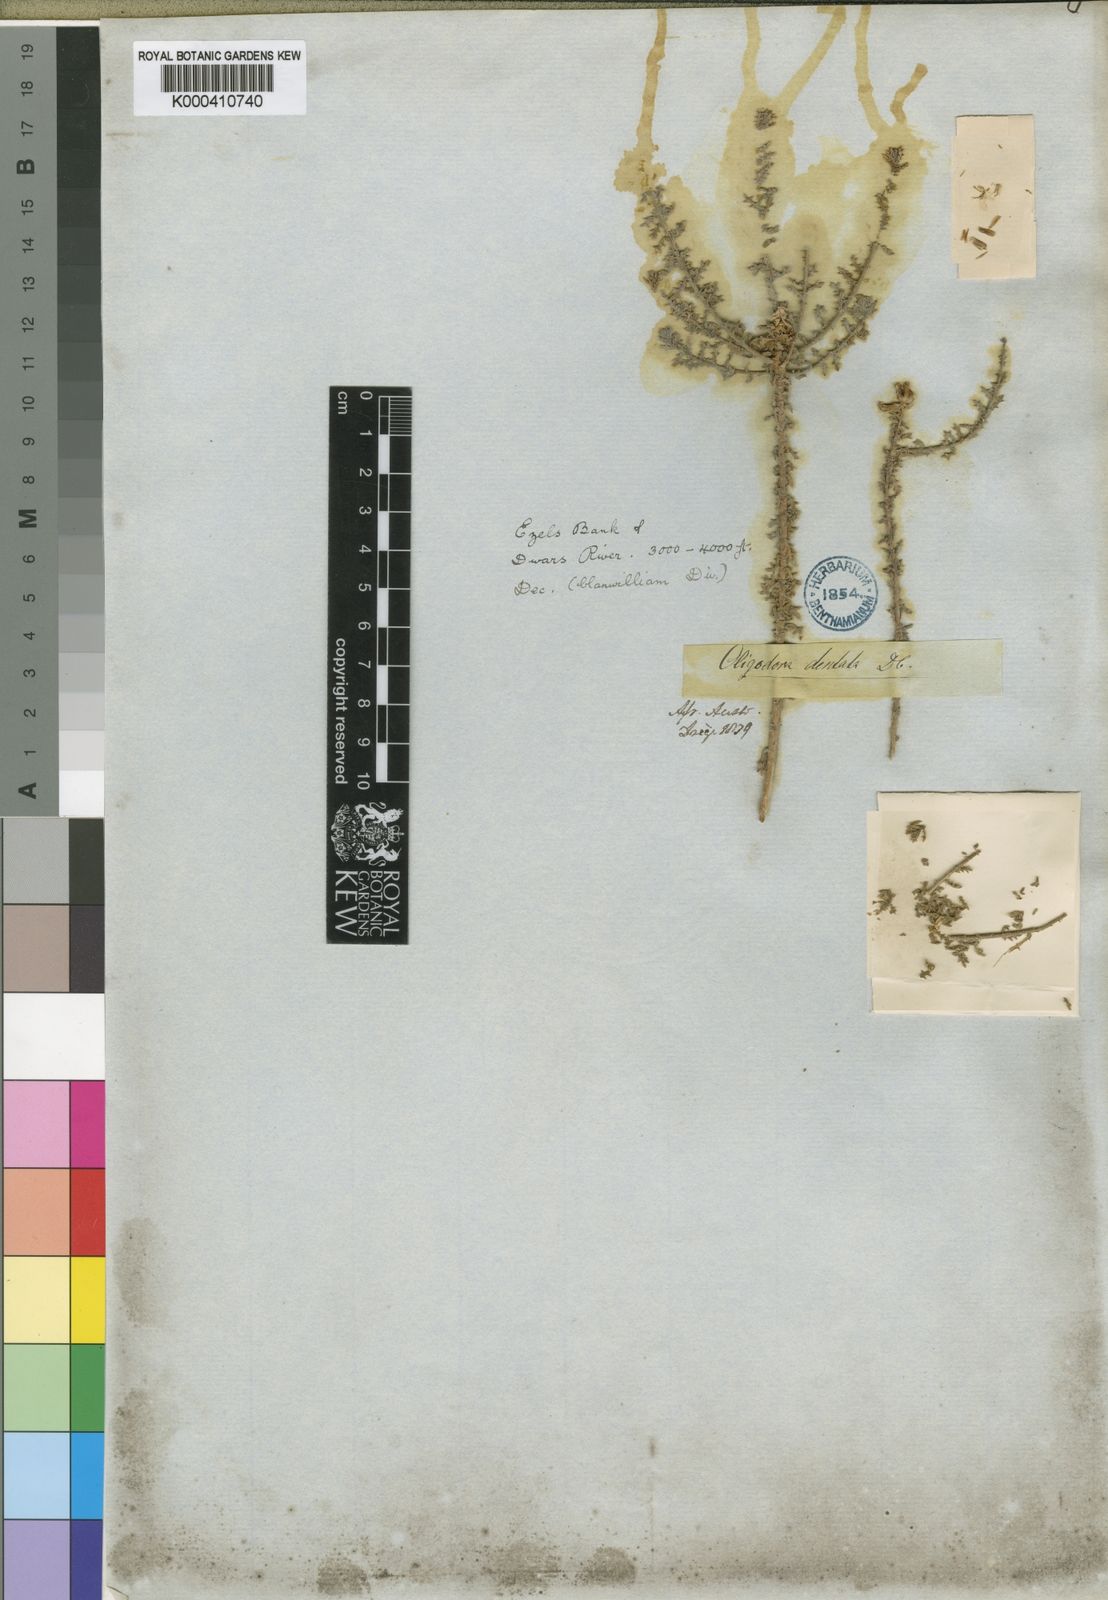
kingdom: Plantae
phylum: Tracheophyta
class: Magnoliopsida
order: Asterales
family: Asteraceae
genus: Athanasia
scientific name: Athanasia dentata
